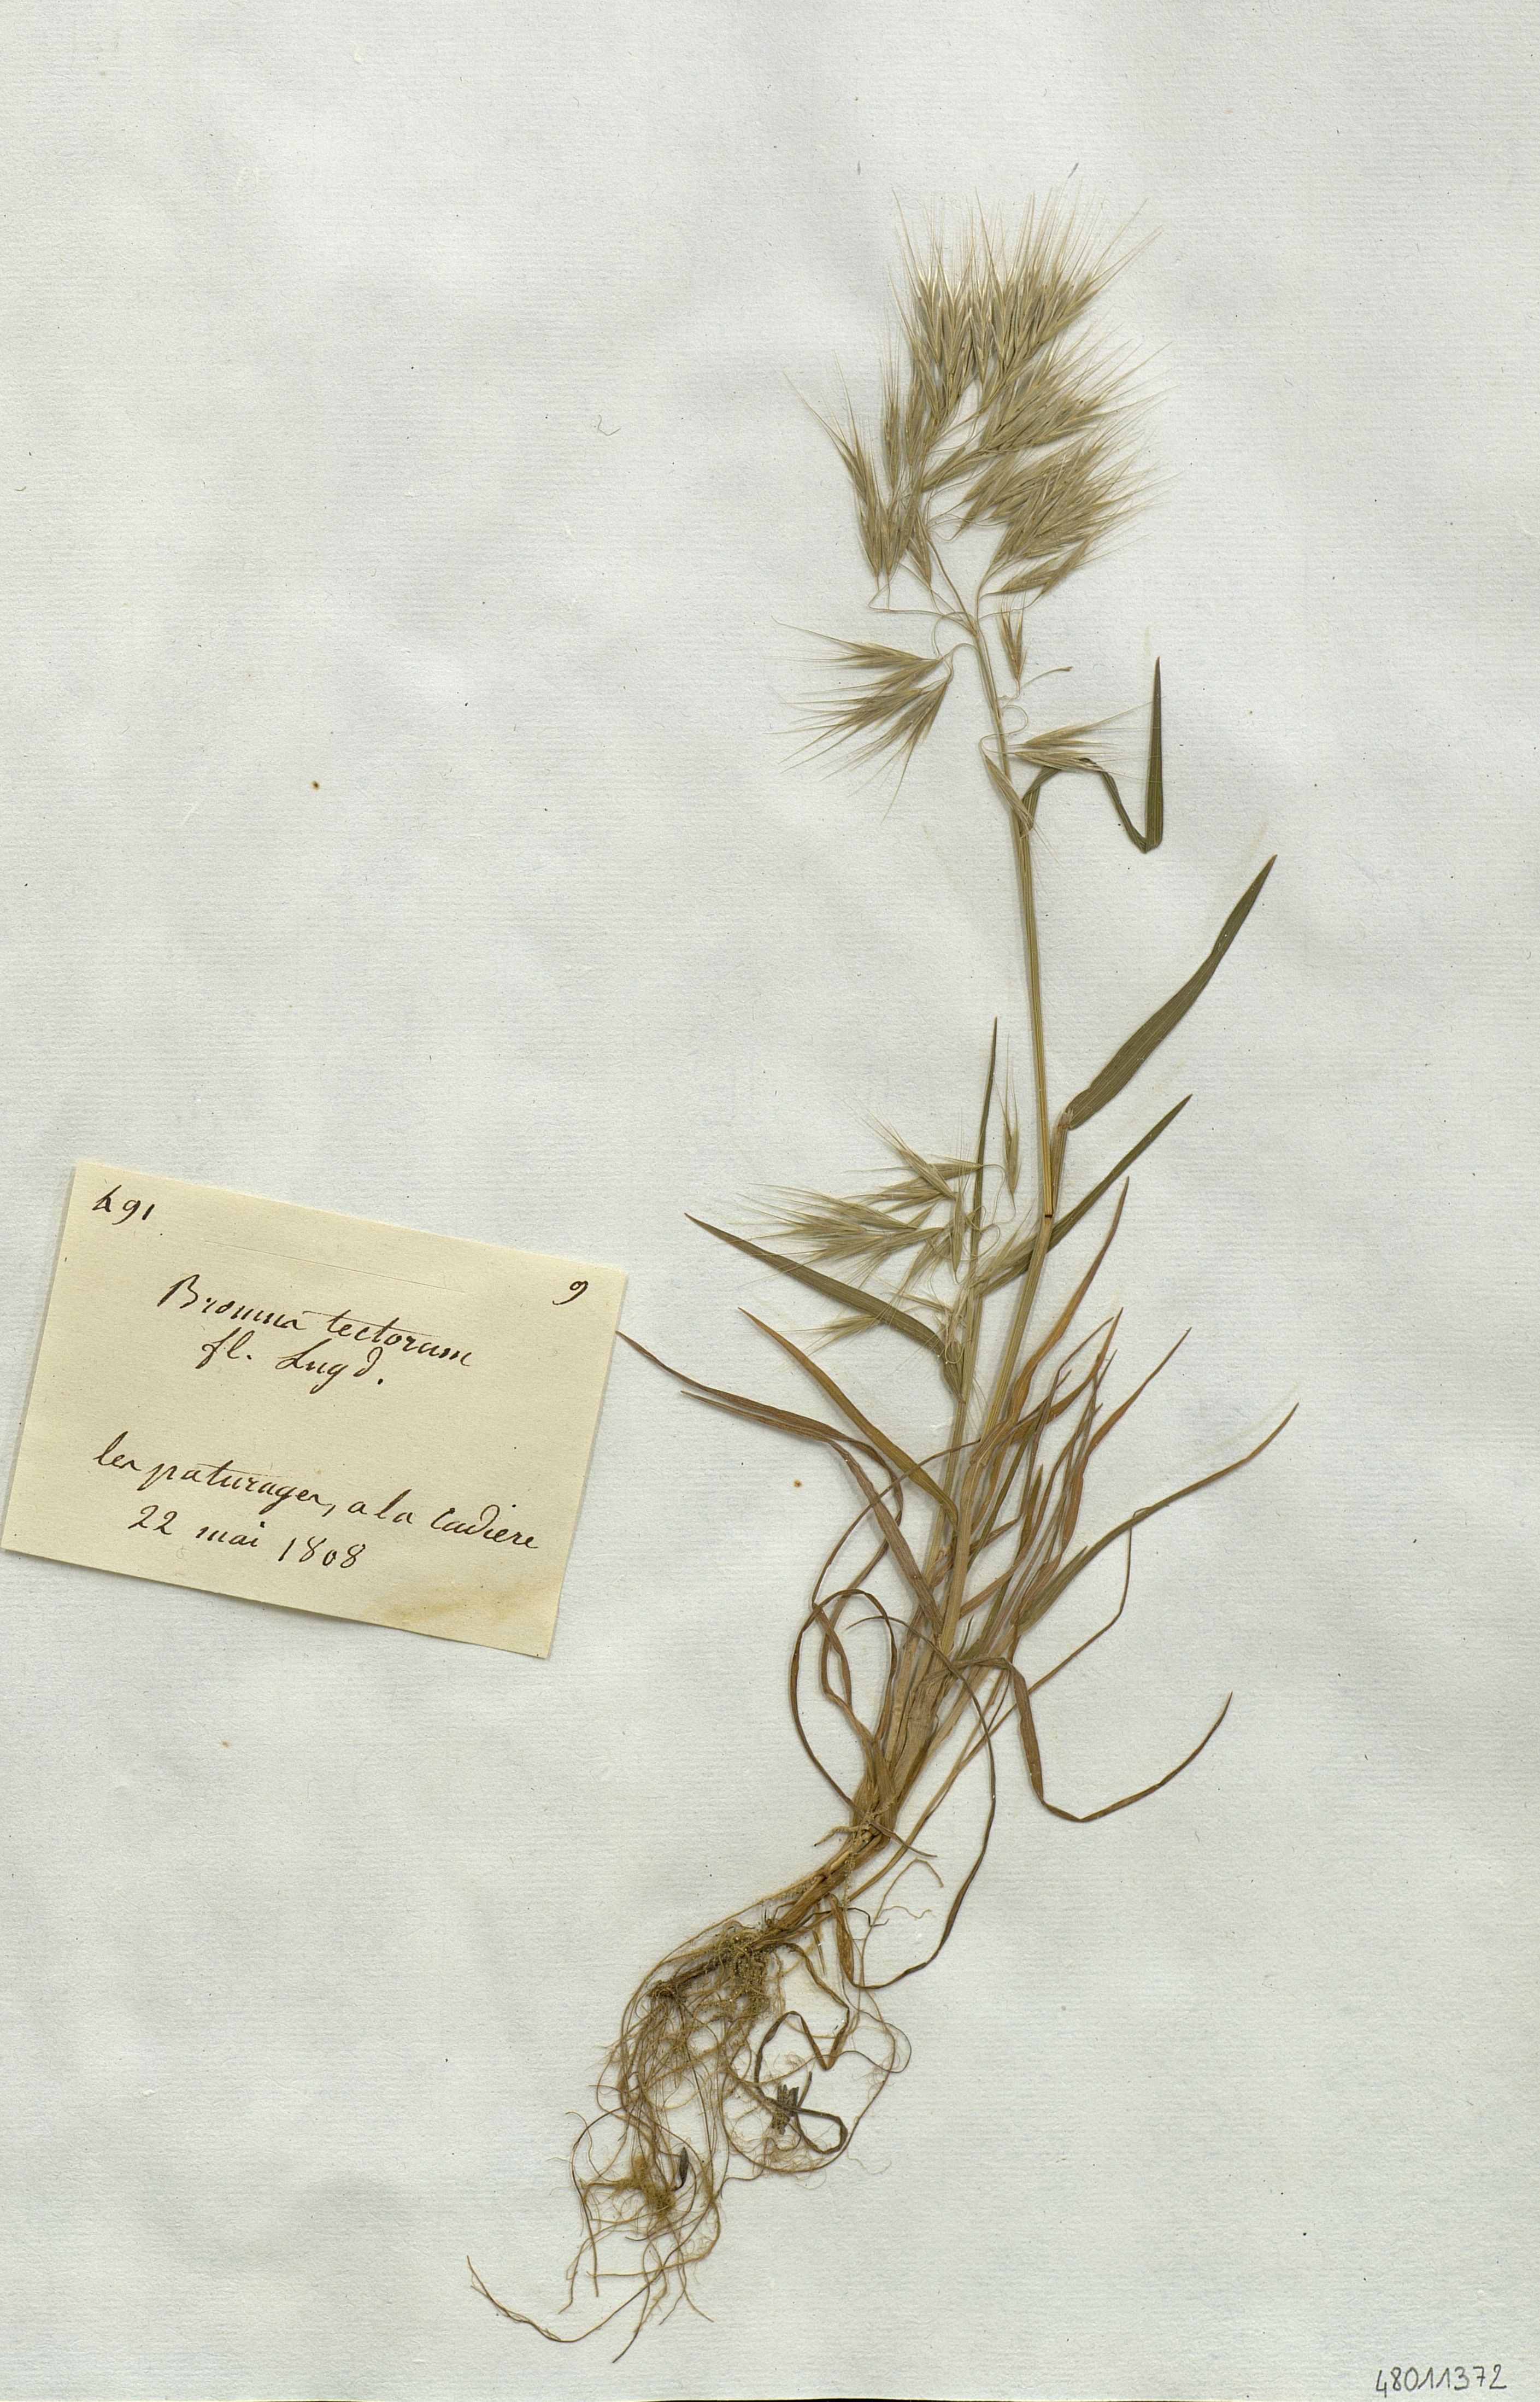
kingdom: Plantae
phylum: Tracheophyta
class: Liliopsida
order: Poales
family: Poaceae
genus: Bromus
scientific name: Bromus tectorum
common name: Cheatgrass
